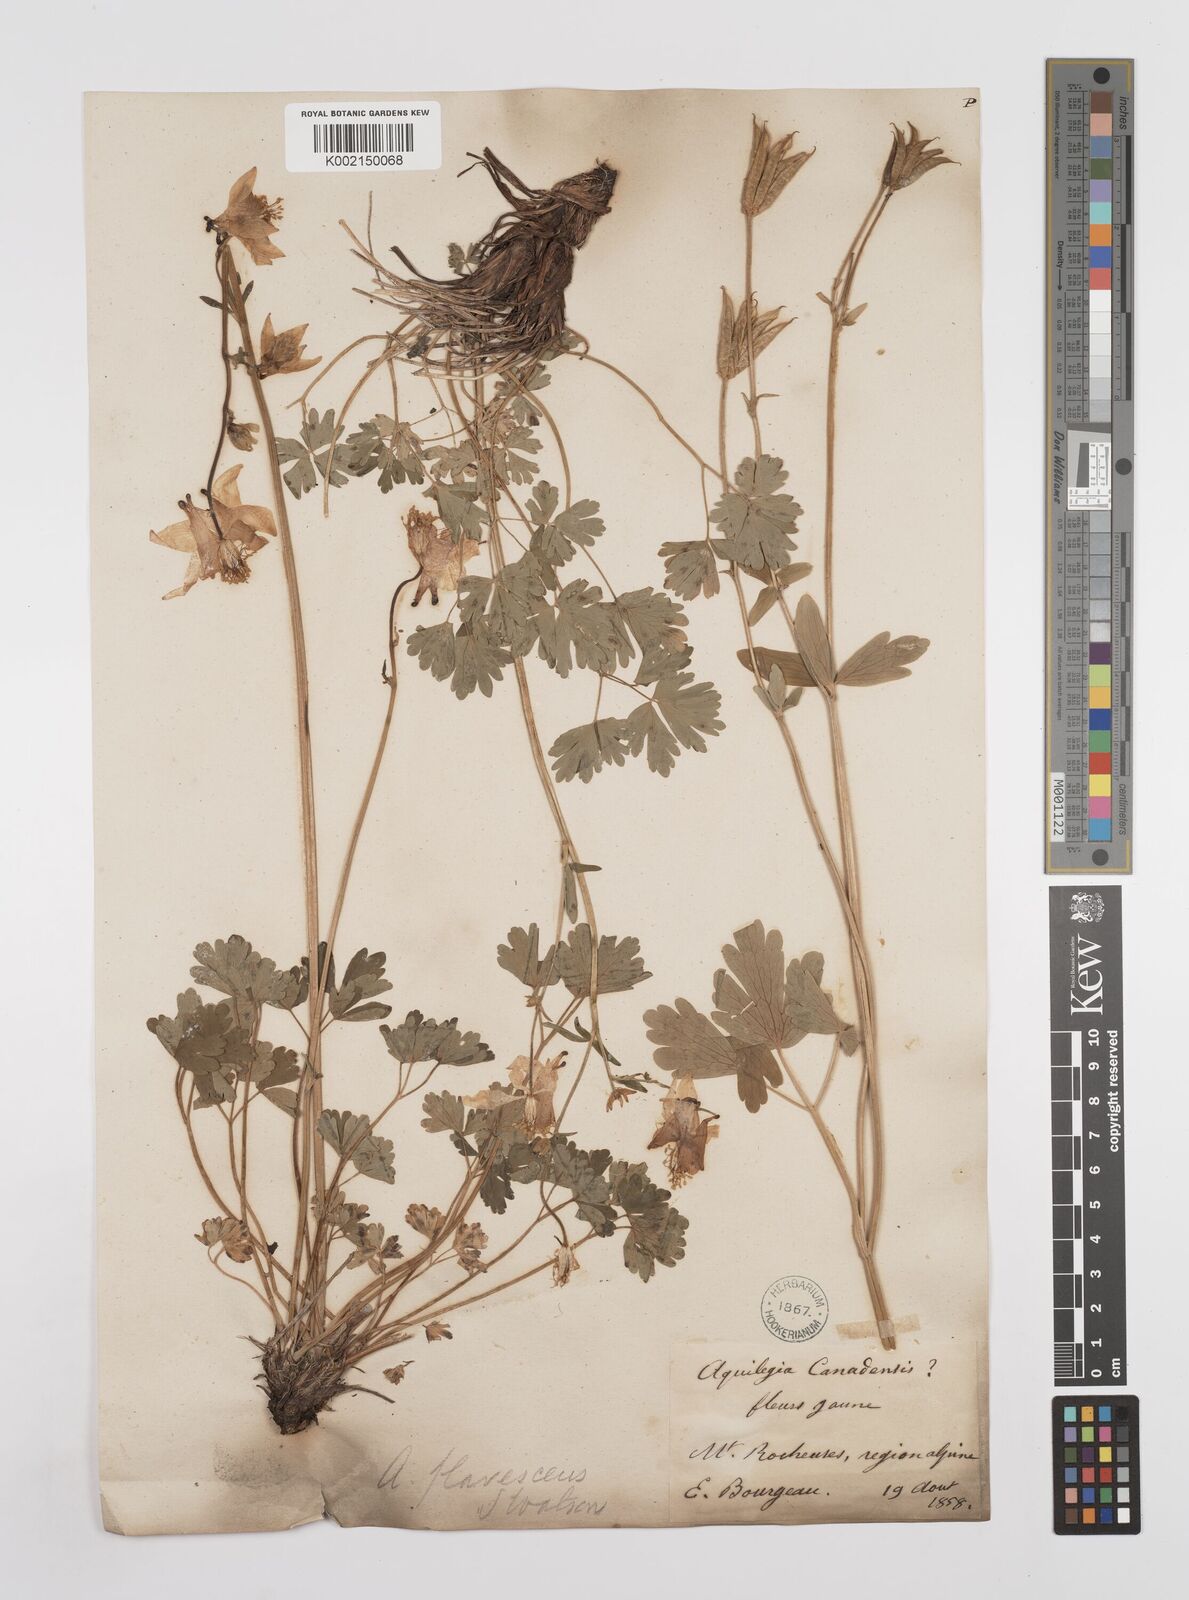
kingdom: Plantae
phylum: Tracheophyta
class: Magnoliopsida
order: Ranunculales
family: Ranunculaceae
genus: Aquilegia
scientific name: Aquilegia flavescens
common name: Yellow columbine
